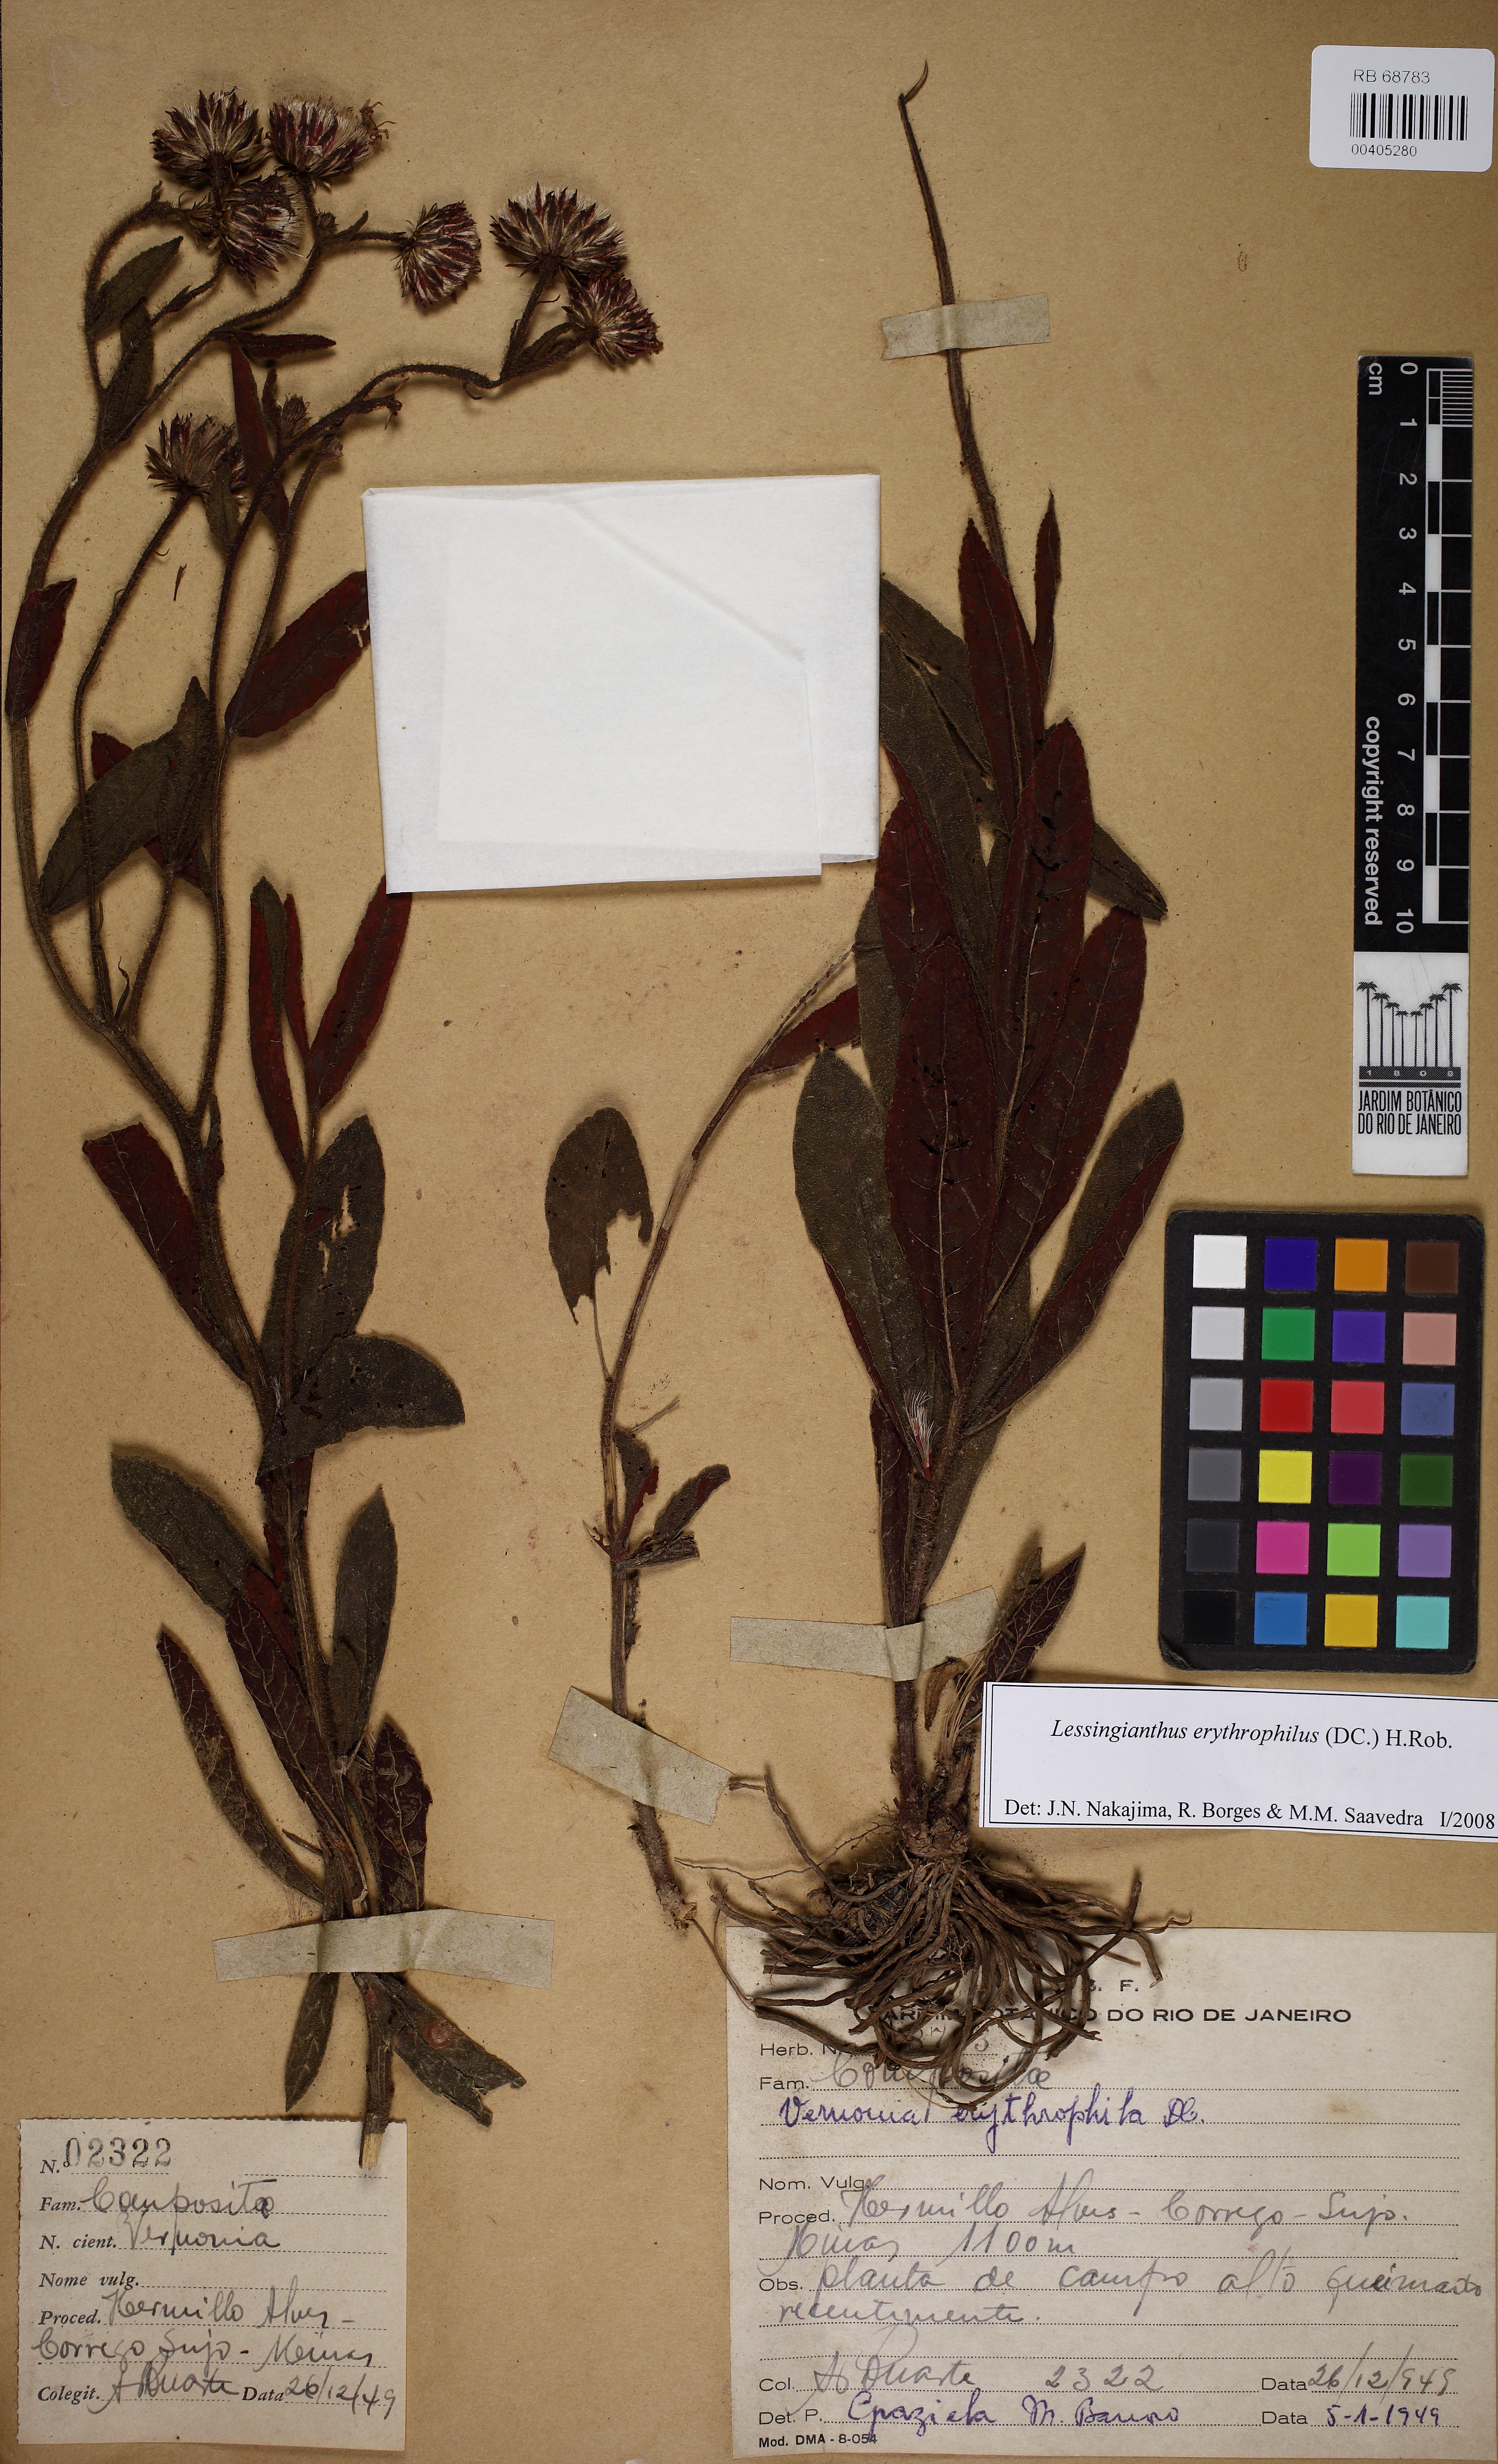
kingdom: Plantae
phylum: Tracheophyta
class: Magnoliopsida
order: Asterales
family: Asteraceae
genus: Lessingianthus
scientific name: Lessingianthus erythrophilus
